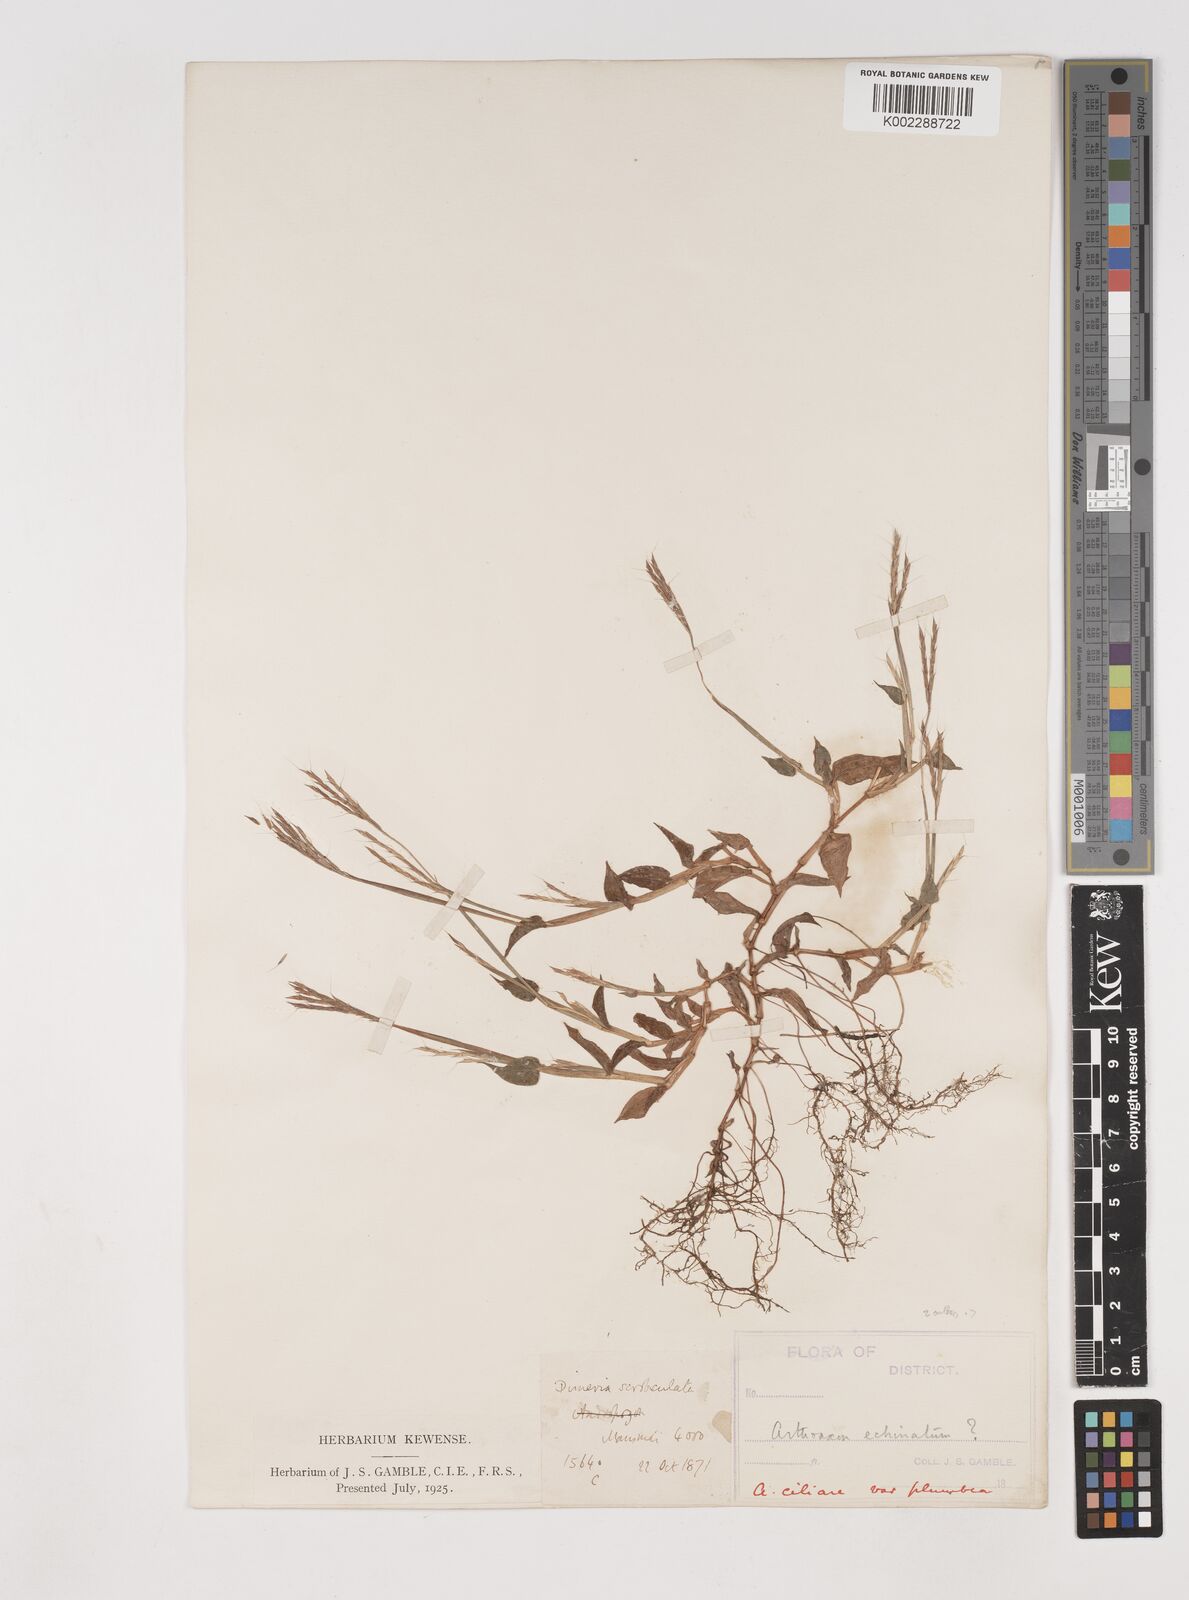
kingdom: Plantae
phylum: Tracheophyta
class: Liliopsida
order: Poales
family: Poaceae
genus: Arthraxon
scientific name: Arthraxon hispidus
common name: Small carpgrass
